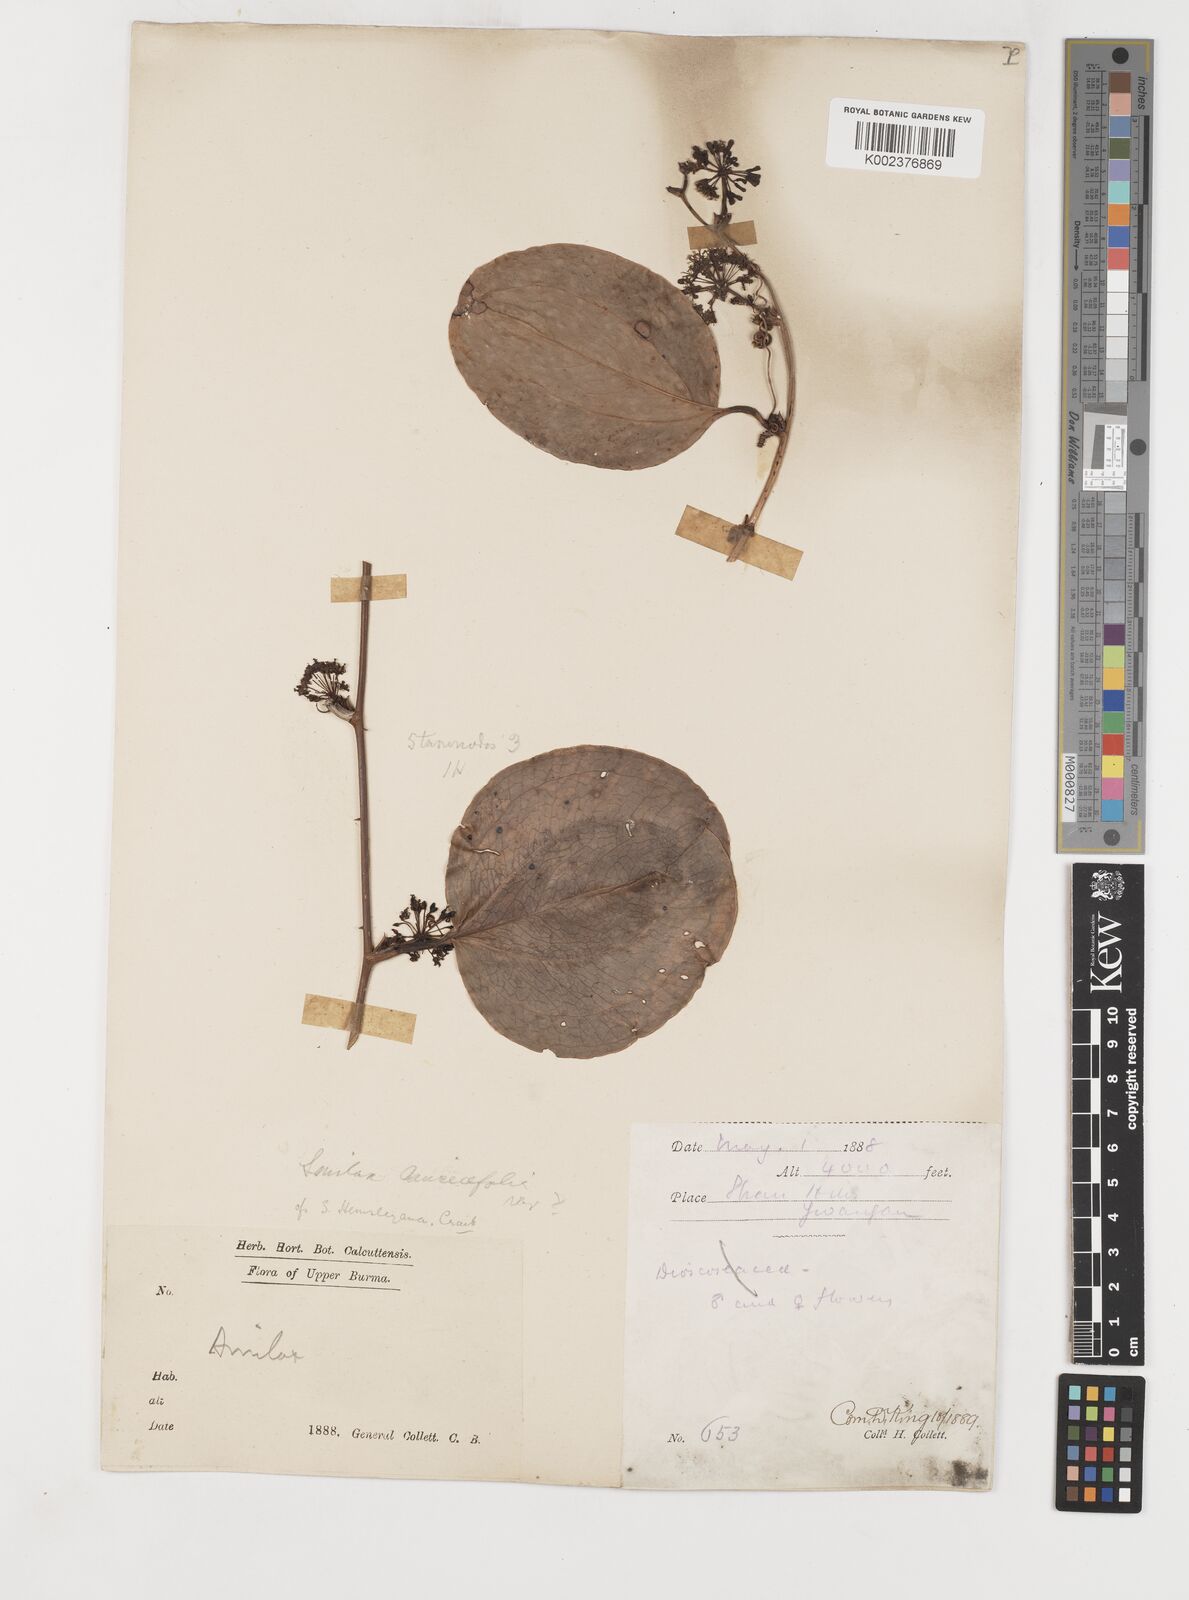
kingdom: Plantae
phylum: Tracheophyta
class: Liliopsida
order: Liliales
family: Smilacaceae
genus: Smilax
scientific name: Smilax hemsleyana
